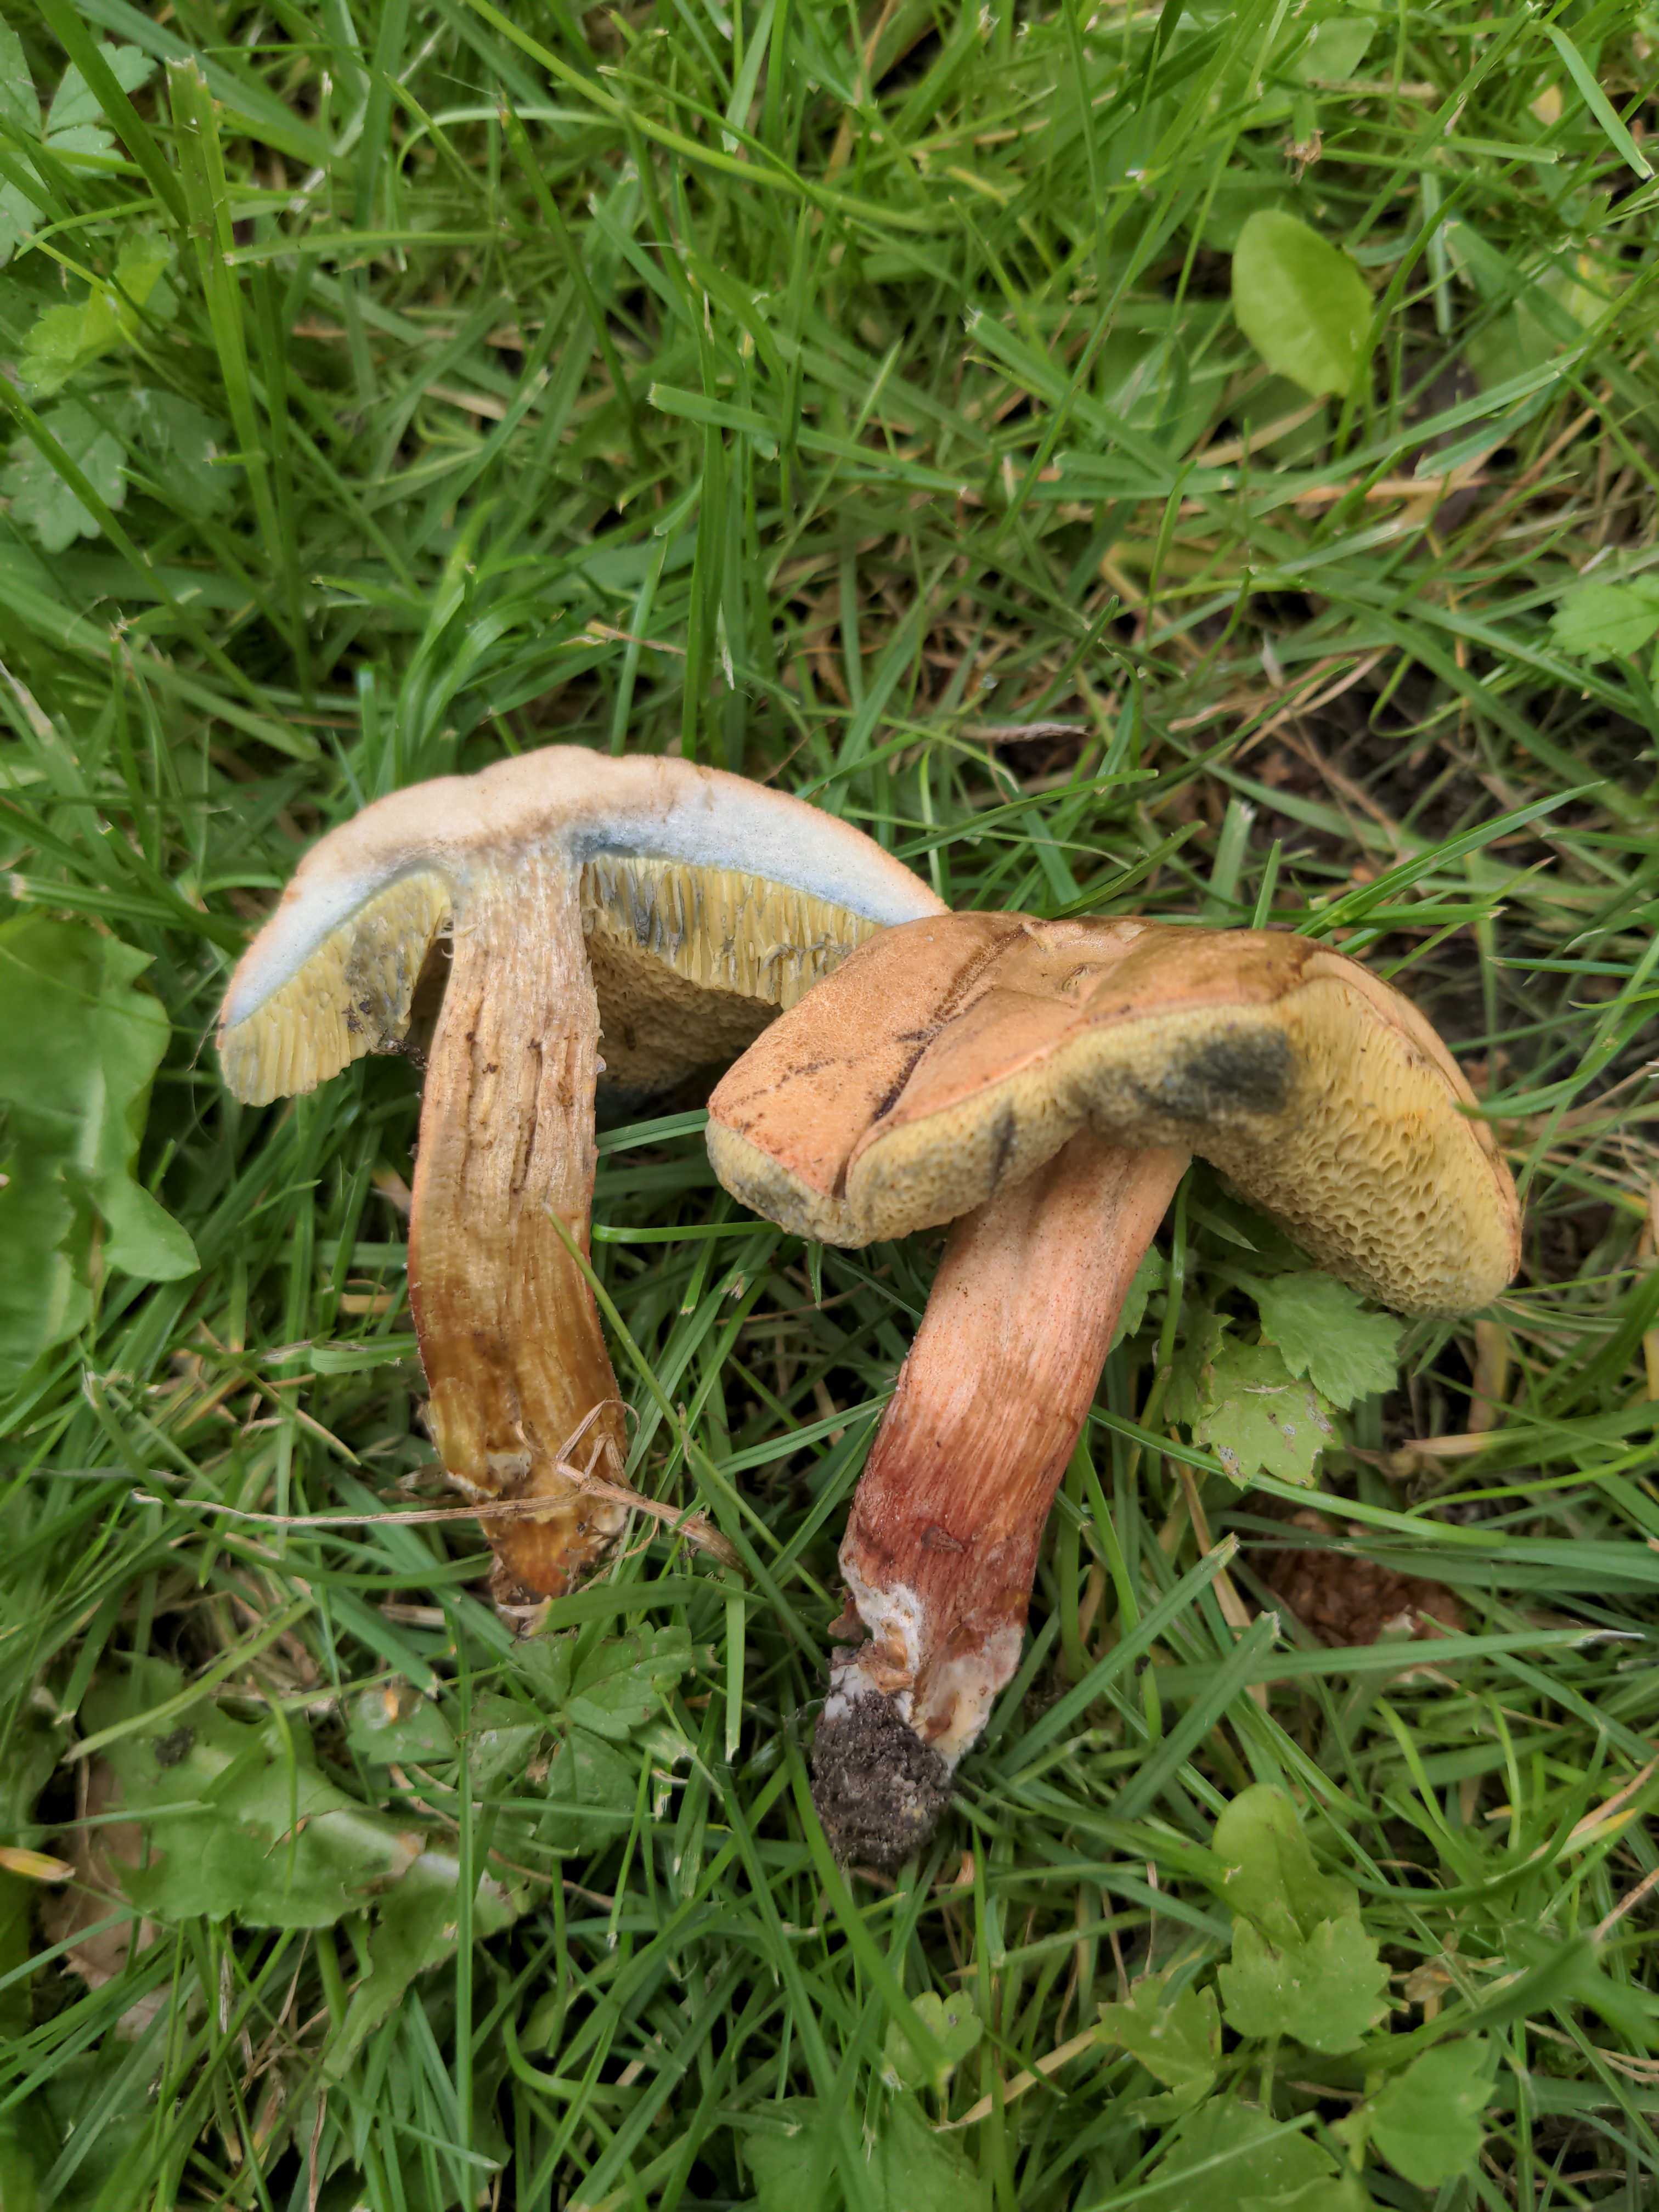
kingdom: Fungi
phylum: Basidiomycota
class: Agaricomycetes
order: Boletales
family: Boletaceae
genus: Hortiboletus
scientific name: Hortiboletus bubalinus
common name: aurora-rørhat
